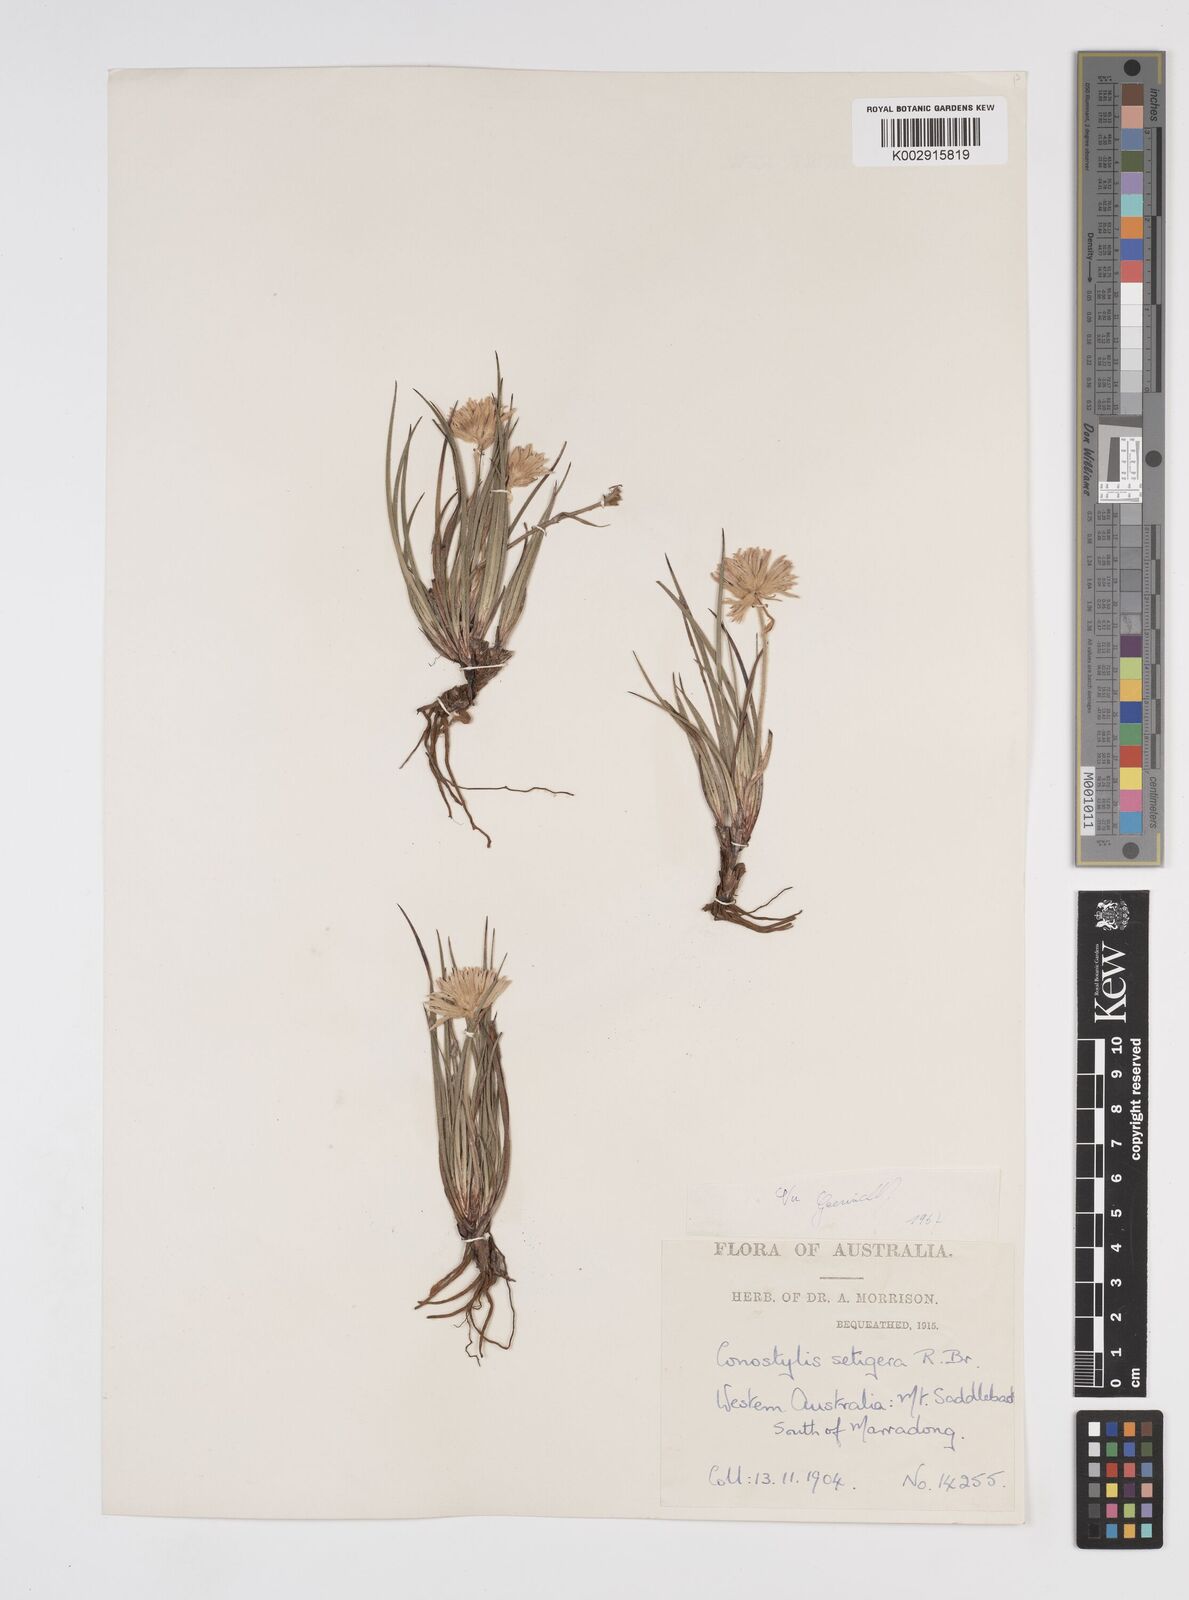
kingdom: Plantae
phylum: Tracheophyta
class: Liliopsida
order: Commelinales
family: Haemodoraceae
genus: Conostylis
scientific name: Conostylis setigera
